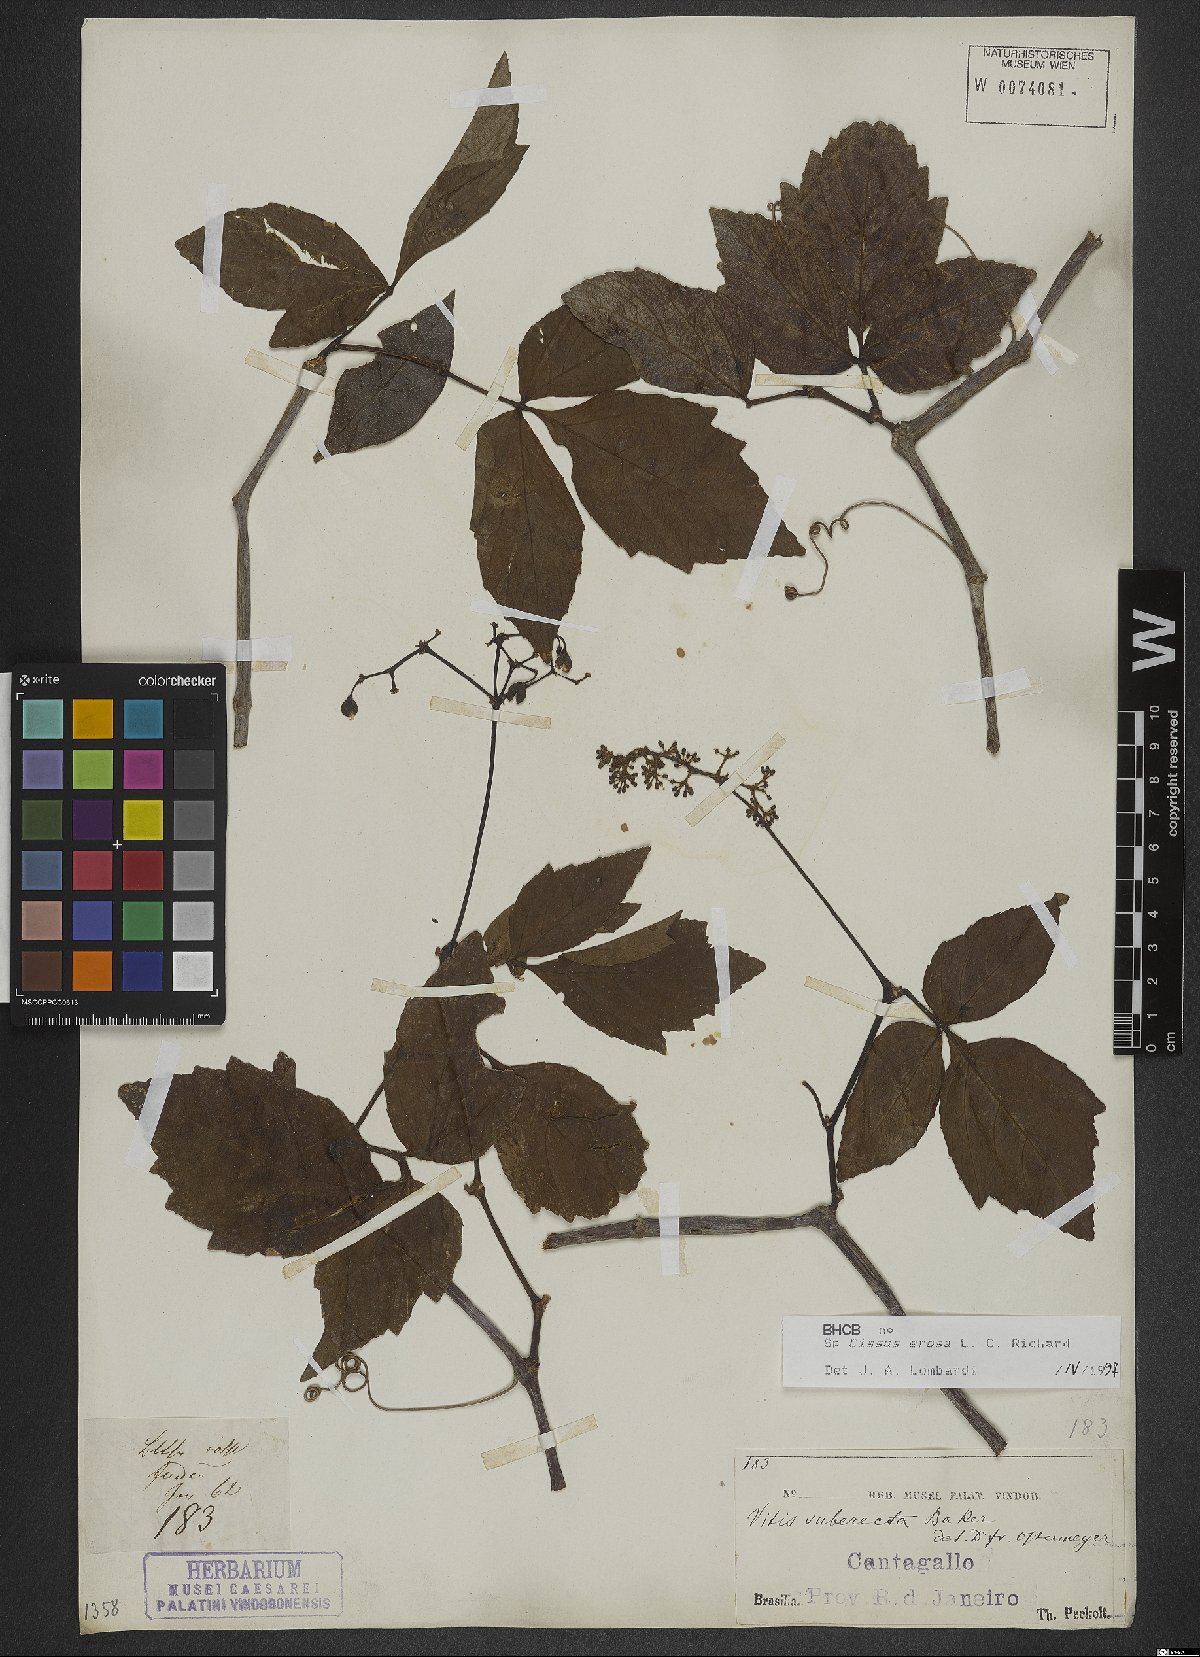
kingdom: Plantae
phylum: Tracheophyta
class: Magnoliopsida
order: Vitales
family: Vitaceae
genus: Cissus
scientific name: Cissus erosa
